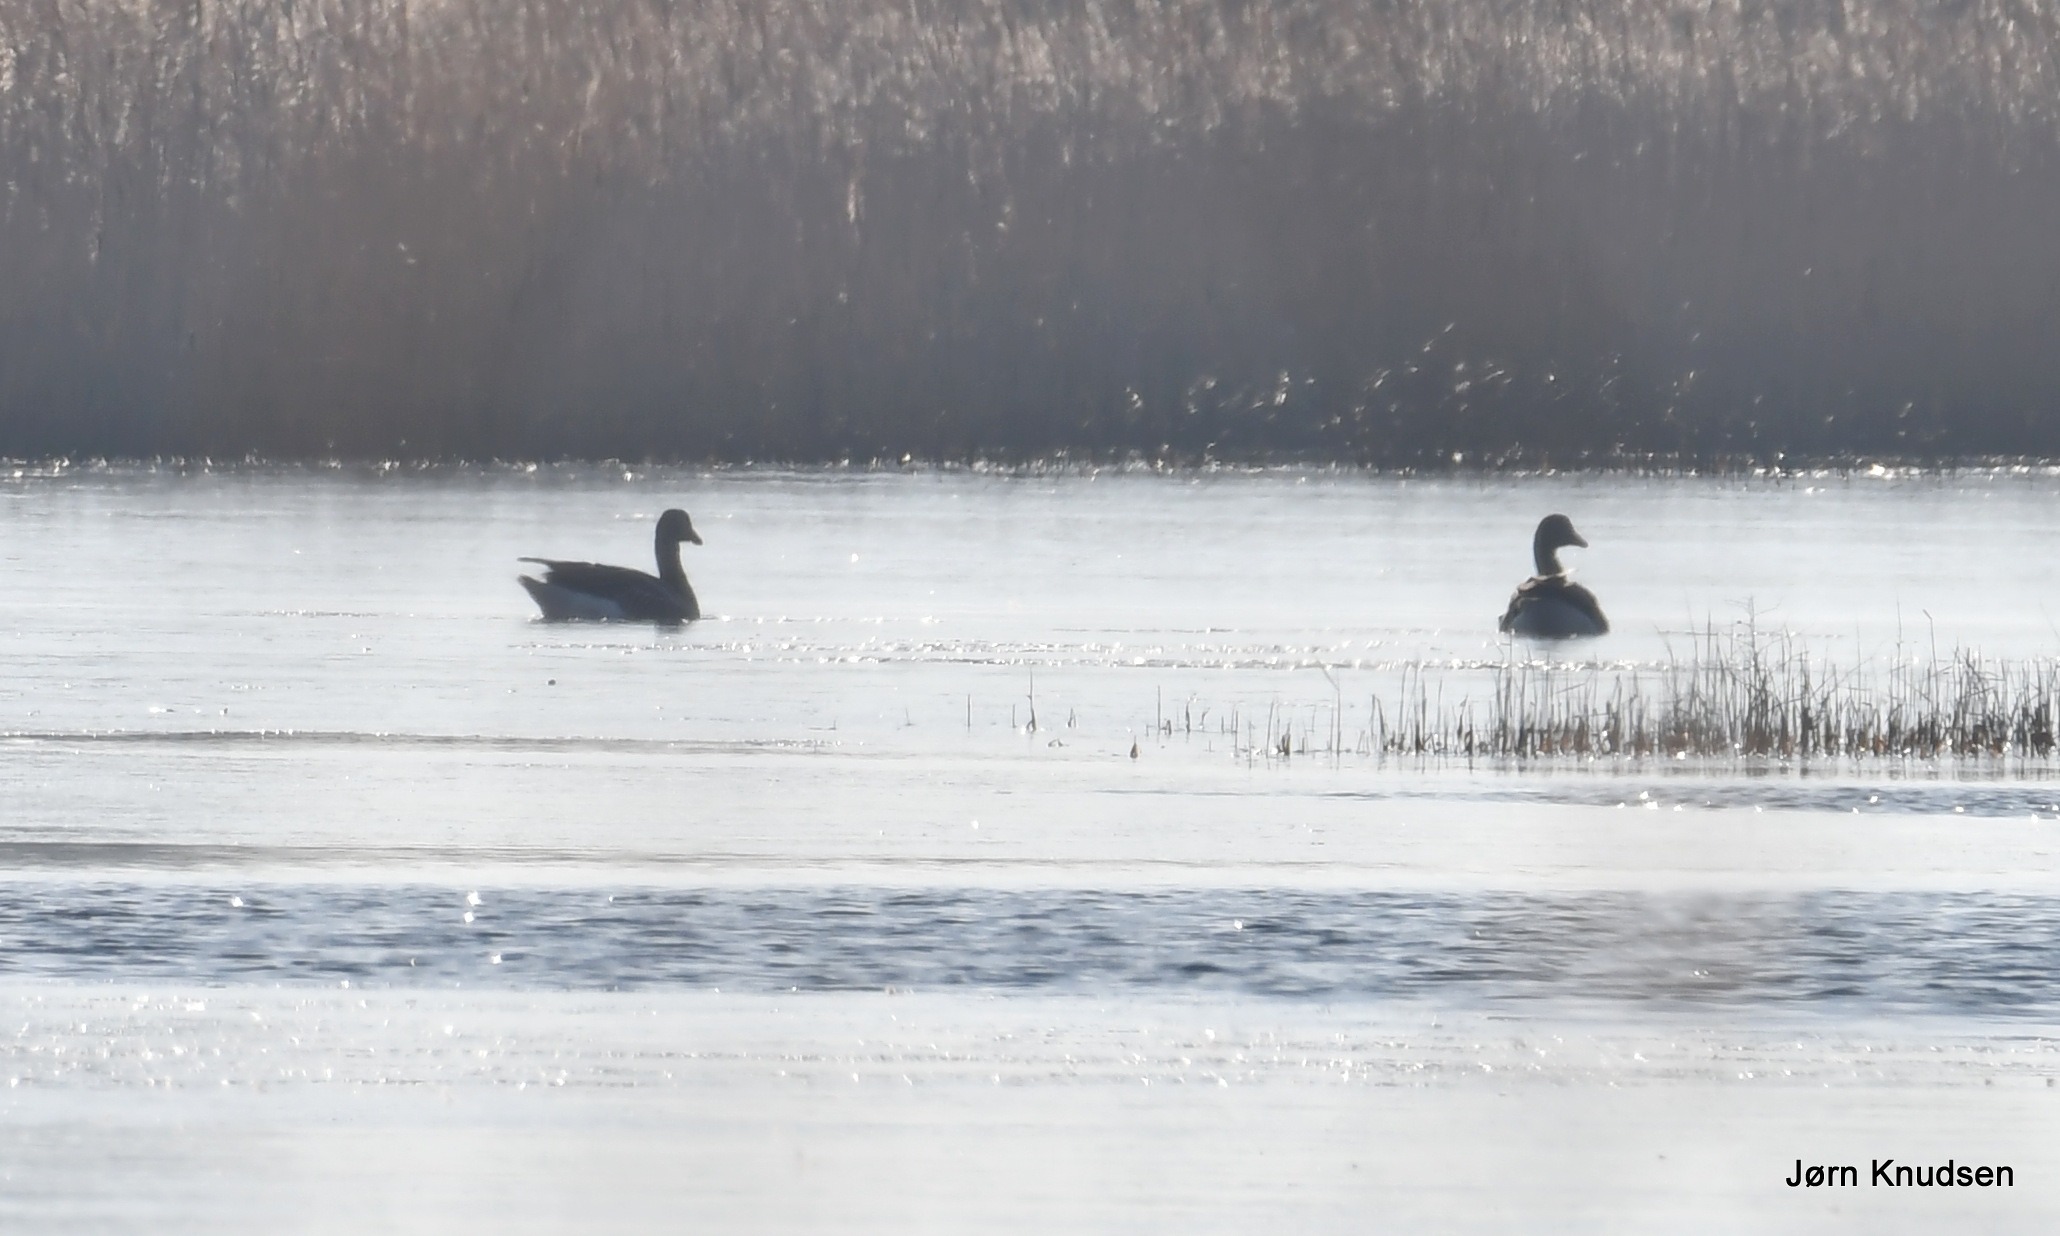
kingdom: Animalia
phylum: Chordata
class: Aves
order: Anseriformes
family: Anatidae
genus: Anser
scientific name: Anser anser
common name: Grågås
